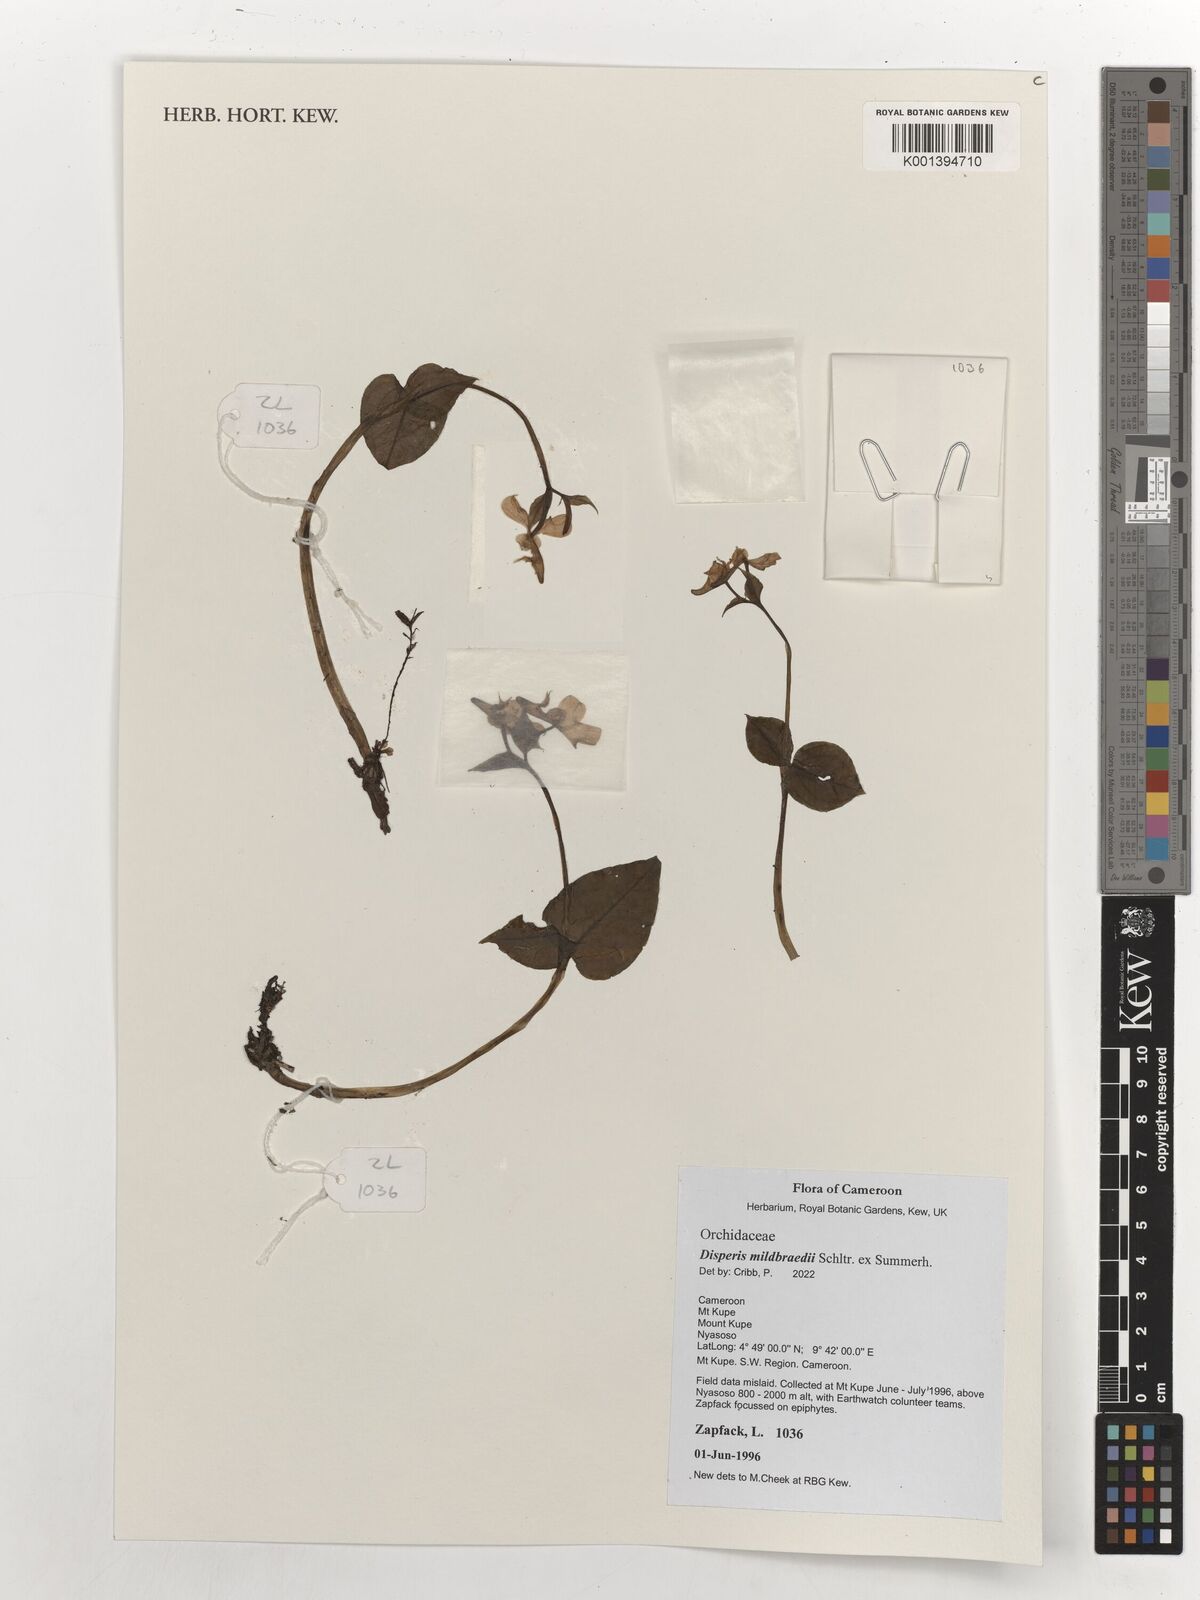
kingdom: Plantae
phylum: Tracheophyta
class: Liliopsida
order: Asparagales
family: Orchidaceae
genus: Disperis
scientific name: Disperis mildbraedii
